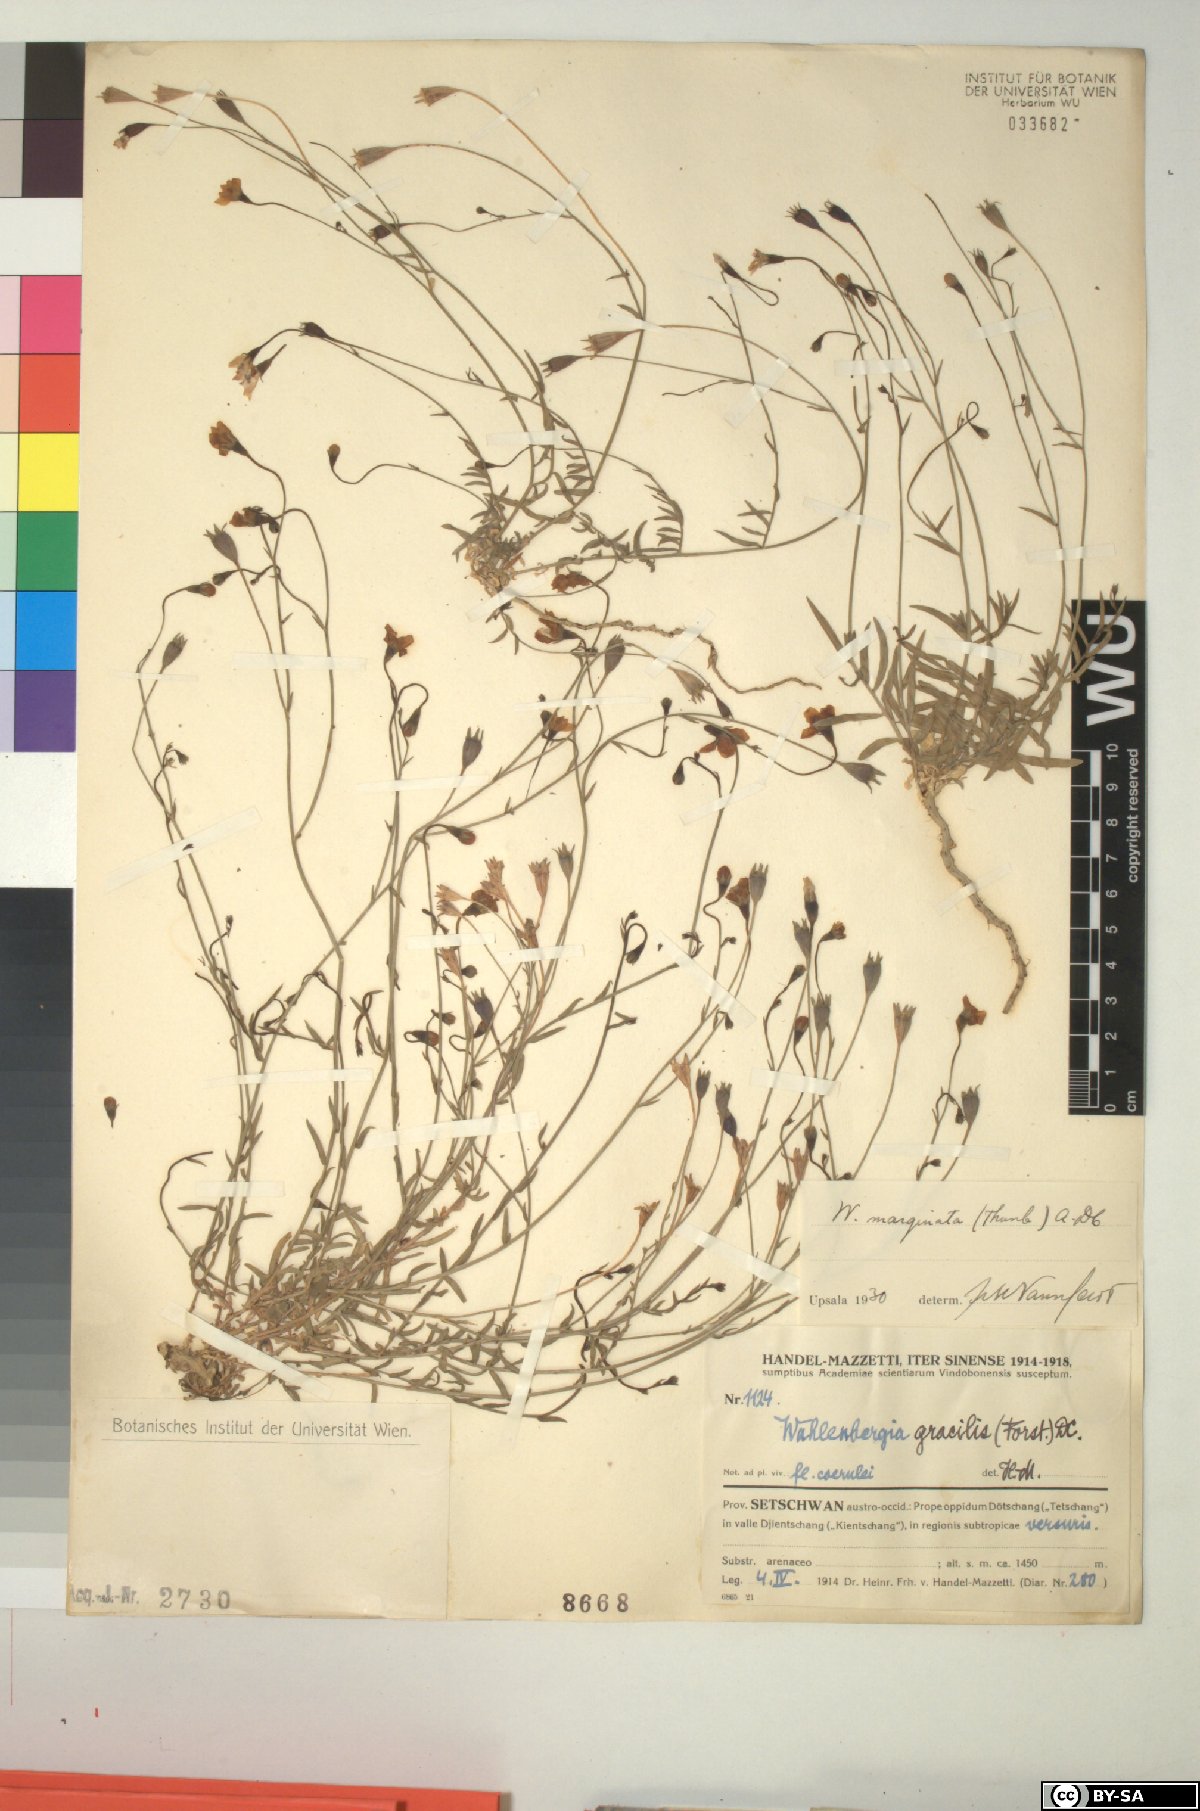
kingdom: Plantae
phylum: Tracheophyta
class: Magnoliopsida
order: Asterales
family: Campanulaceae
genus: Wahlenbergia
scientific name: Wahlenbergia marginata
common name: Southern rockbell
